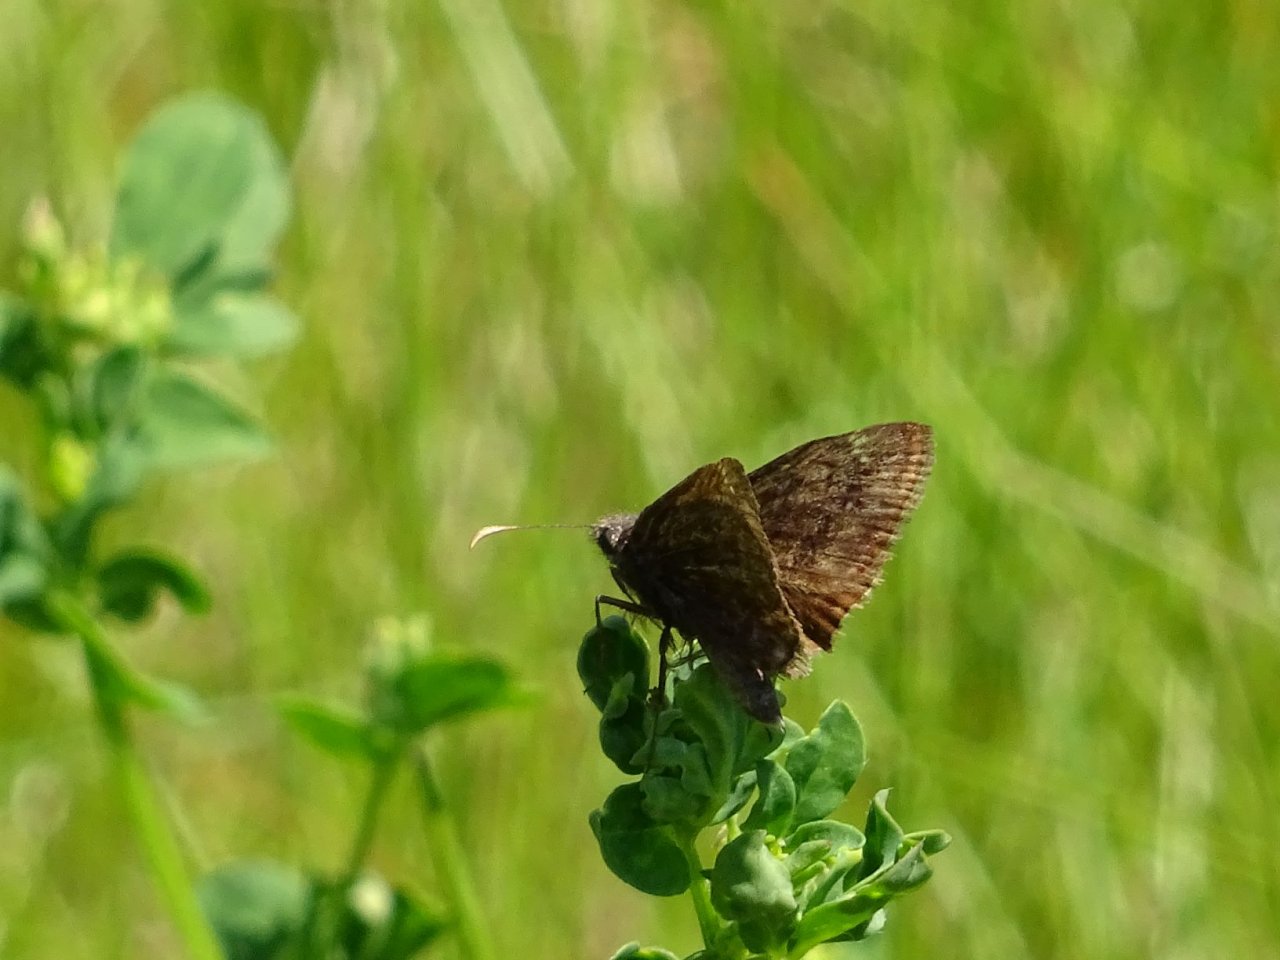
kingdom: Animalia
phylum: Arthropoda
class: Insecta
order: Lepidoptera
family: Hesperiidae
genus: Gesta
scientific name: Gesta
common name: Wild Indigo Duskywing
